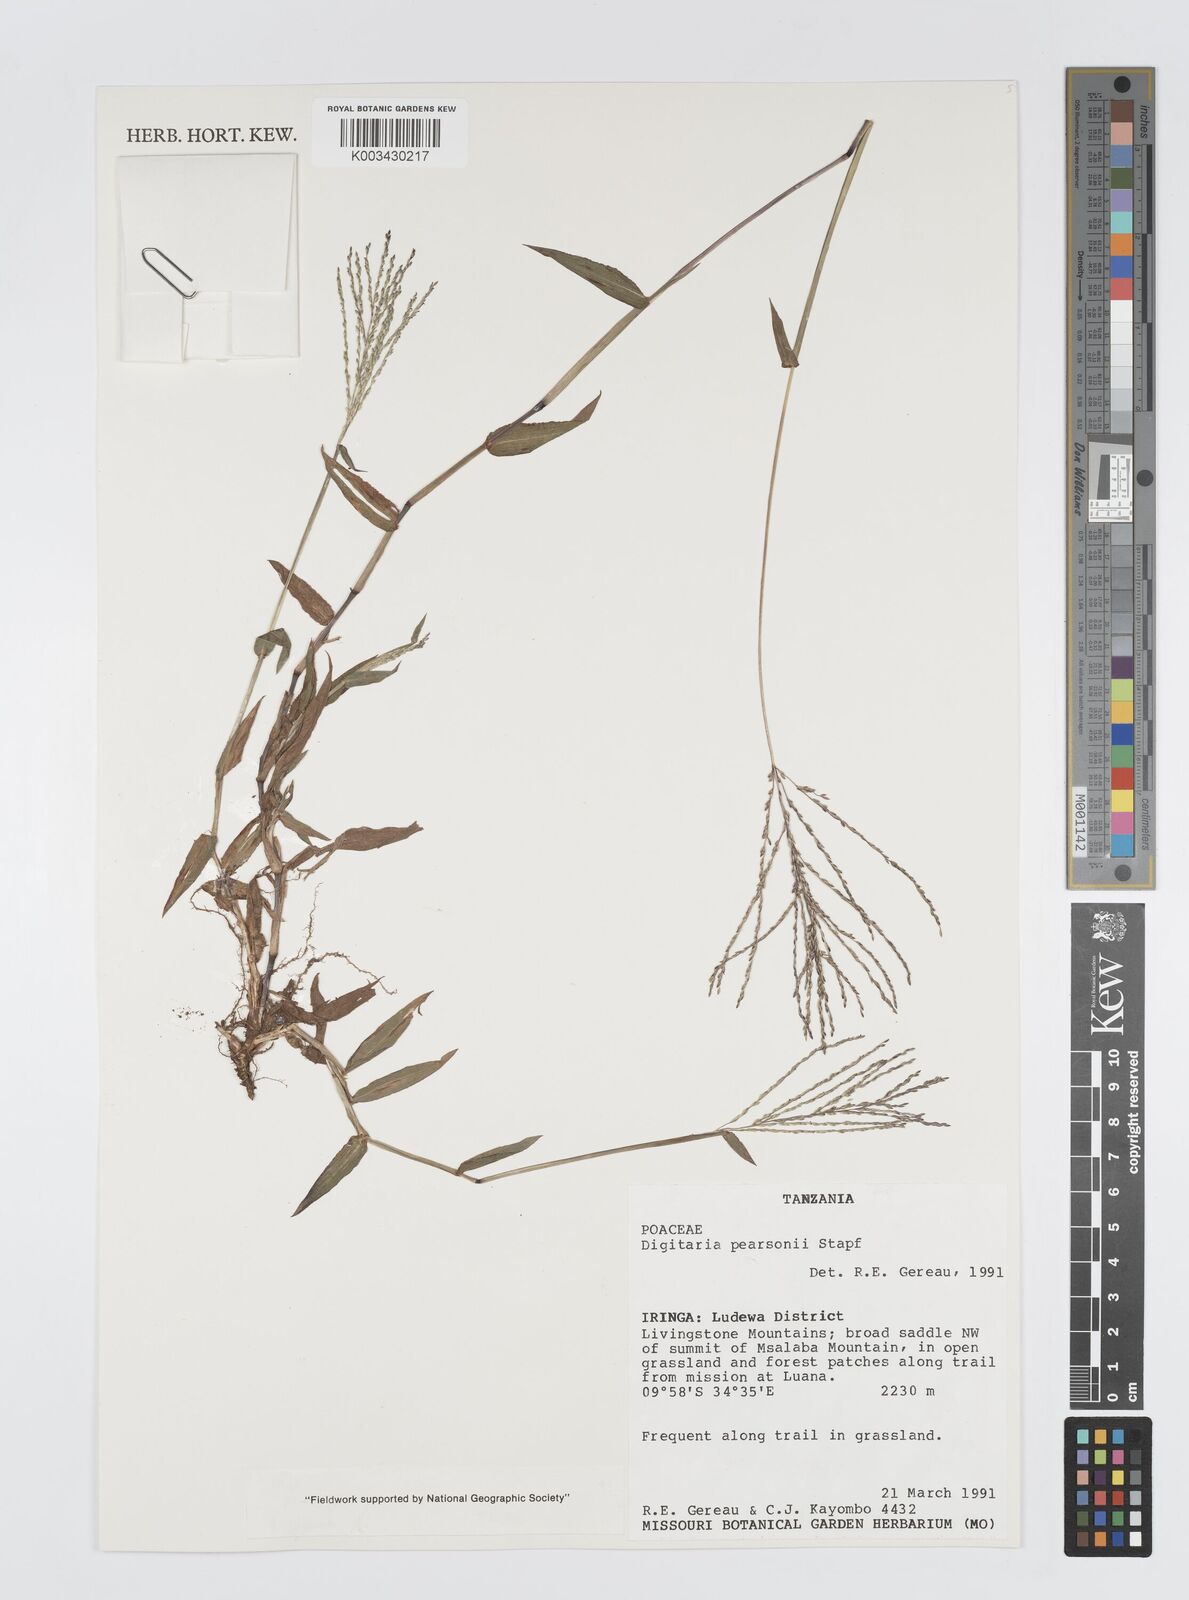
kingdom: Plantae
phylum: Tracheophyta
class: Liliopsida
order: Poales
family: Poaceae
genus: Digitaria
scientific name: Digitaria pearsonii
